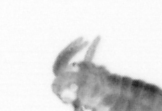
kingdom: Animalia
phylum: Annelida
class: Polychaeta
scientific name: Polychaeta
